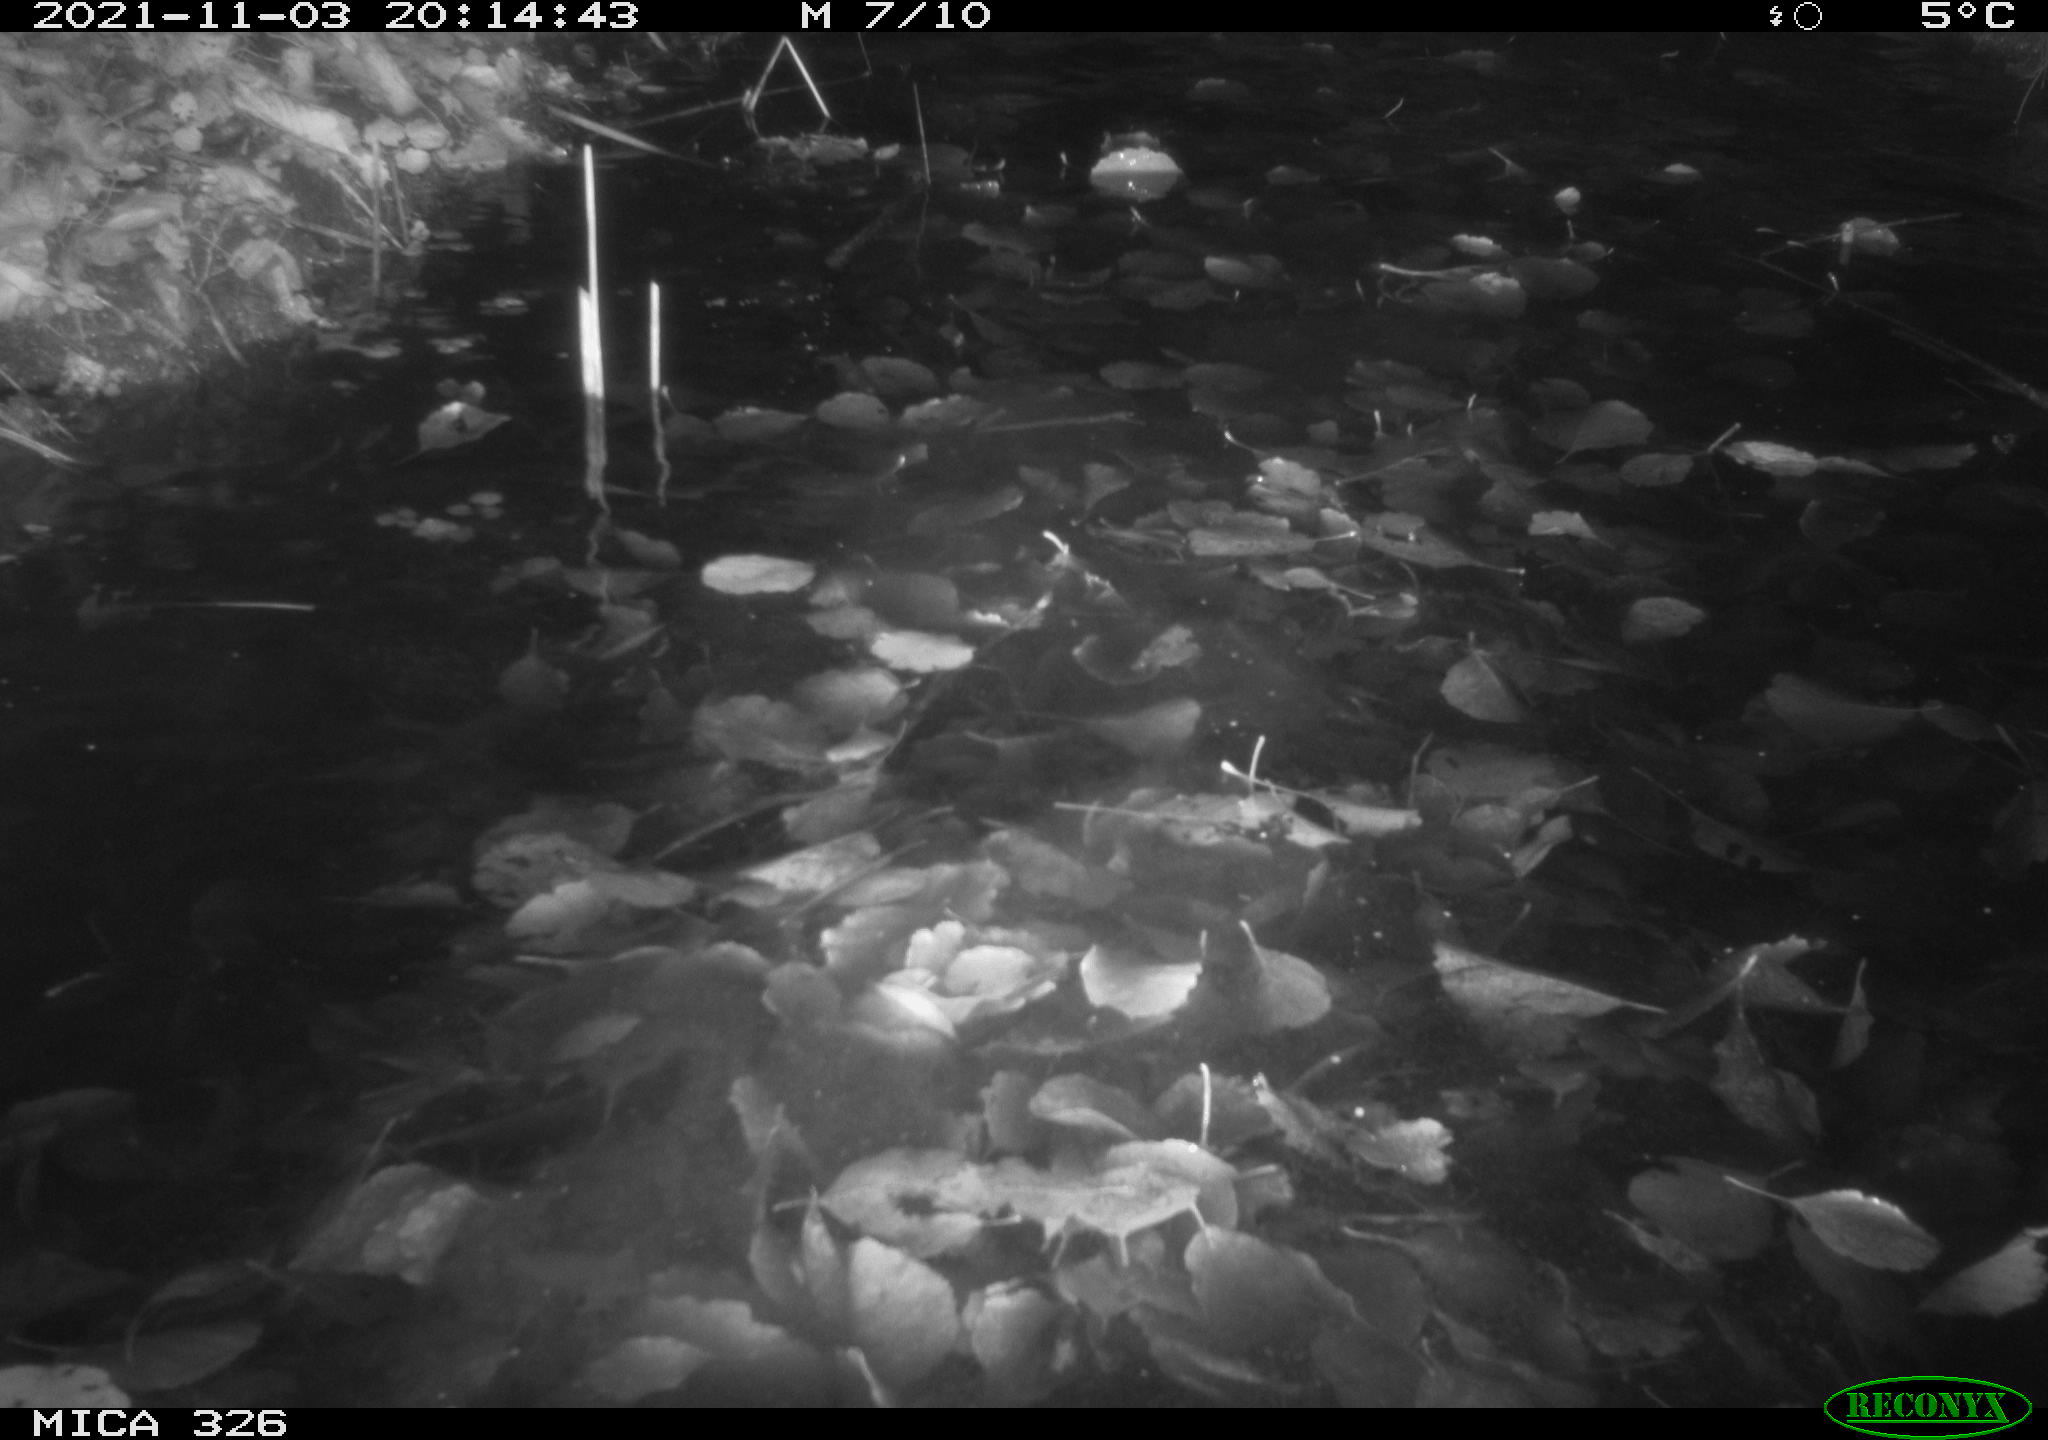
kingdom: Animalia
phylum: Chordata
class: Mammalia
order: Rodentia
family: Myocastoridae
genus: Myocastor
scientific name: Myocastor coypus
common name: Coypu
